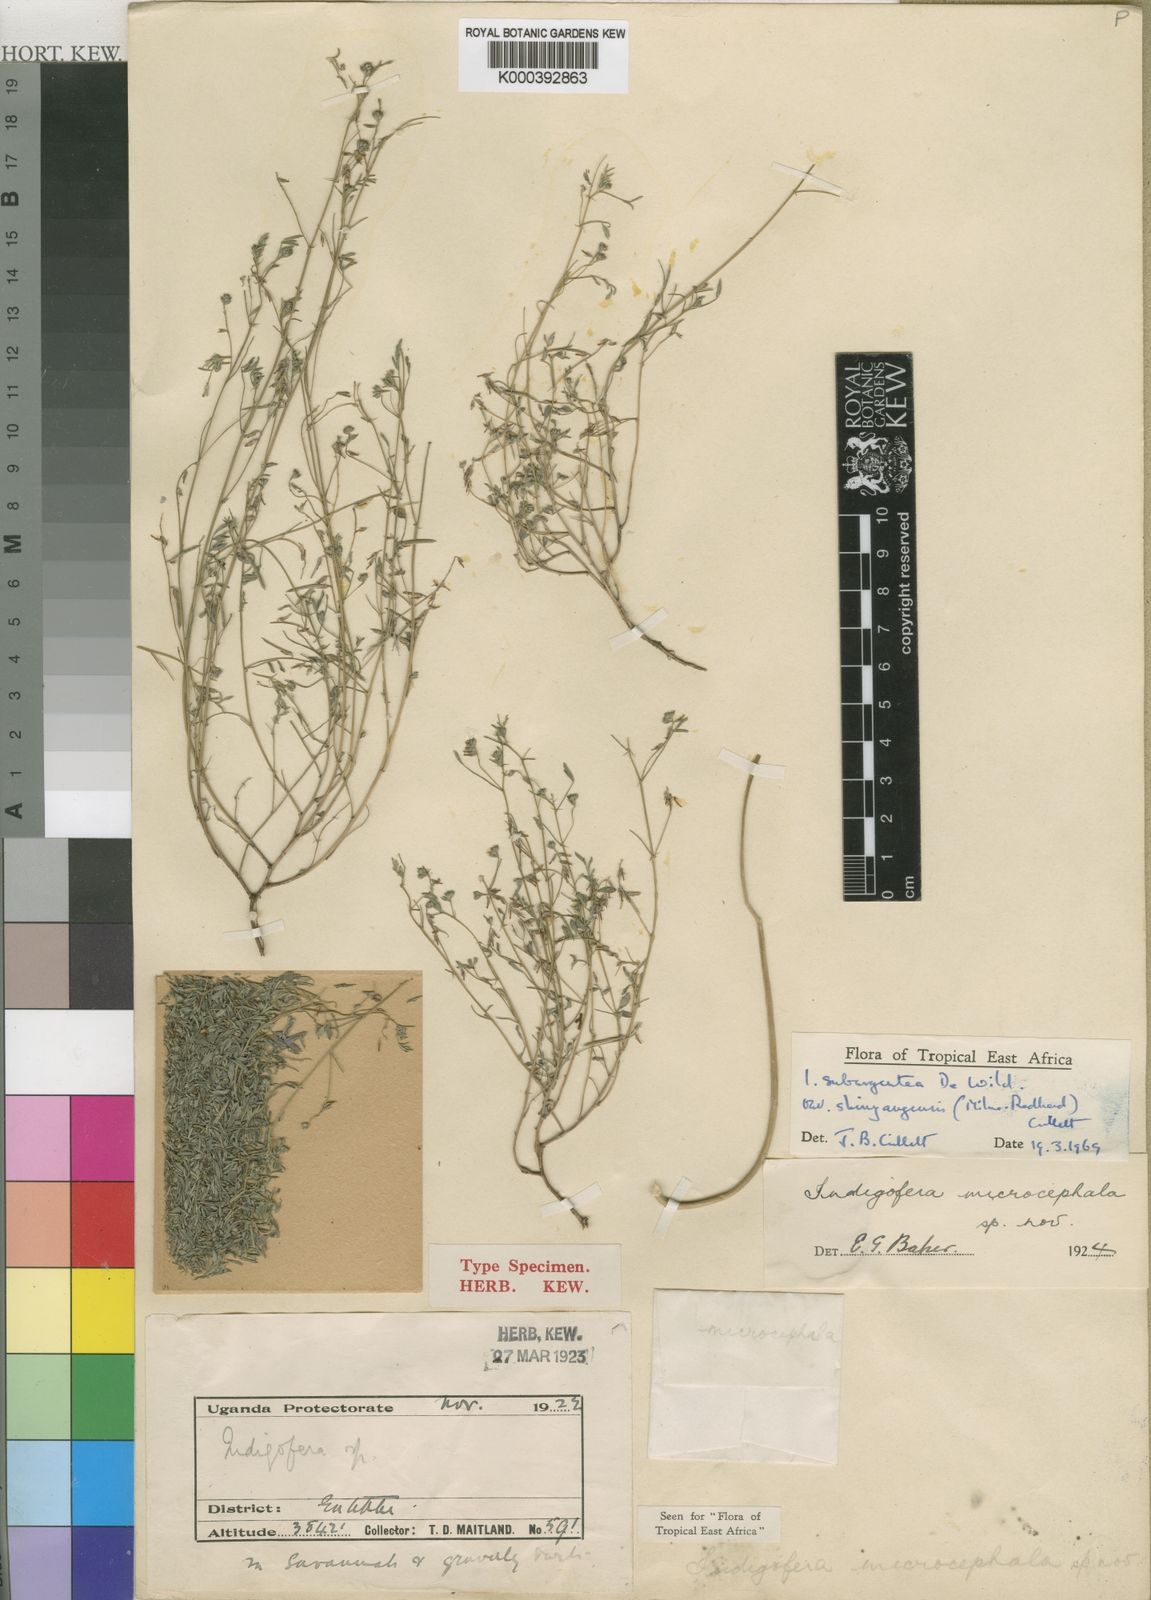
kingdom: Plantae
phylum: Tracheophyta
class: Magnoliopsida
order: Fabales
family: Fabaceae
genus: Indigofera
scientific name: Indigofera subargentea
